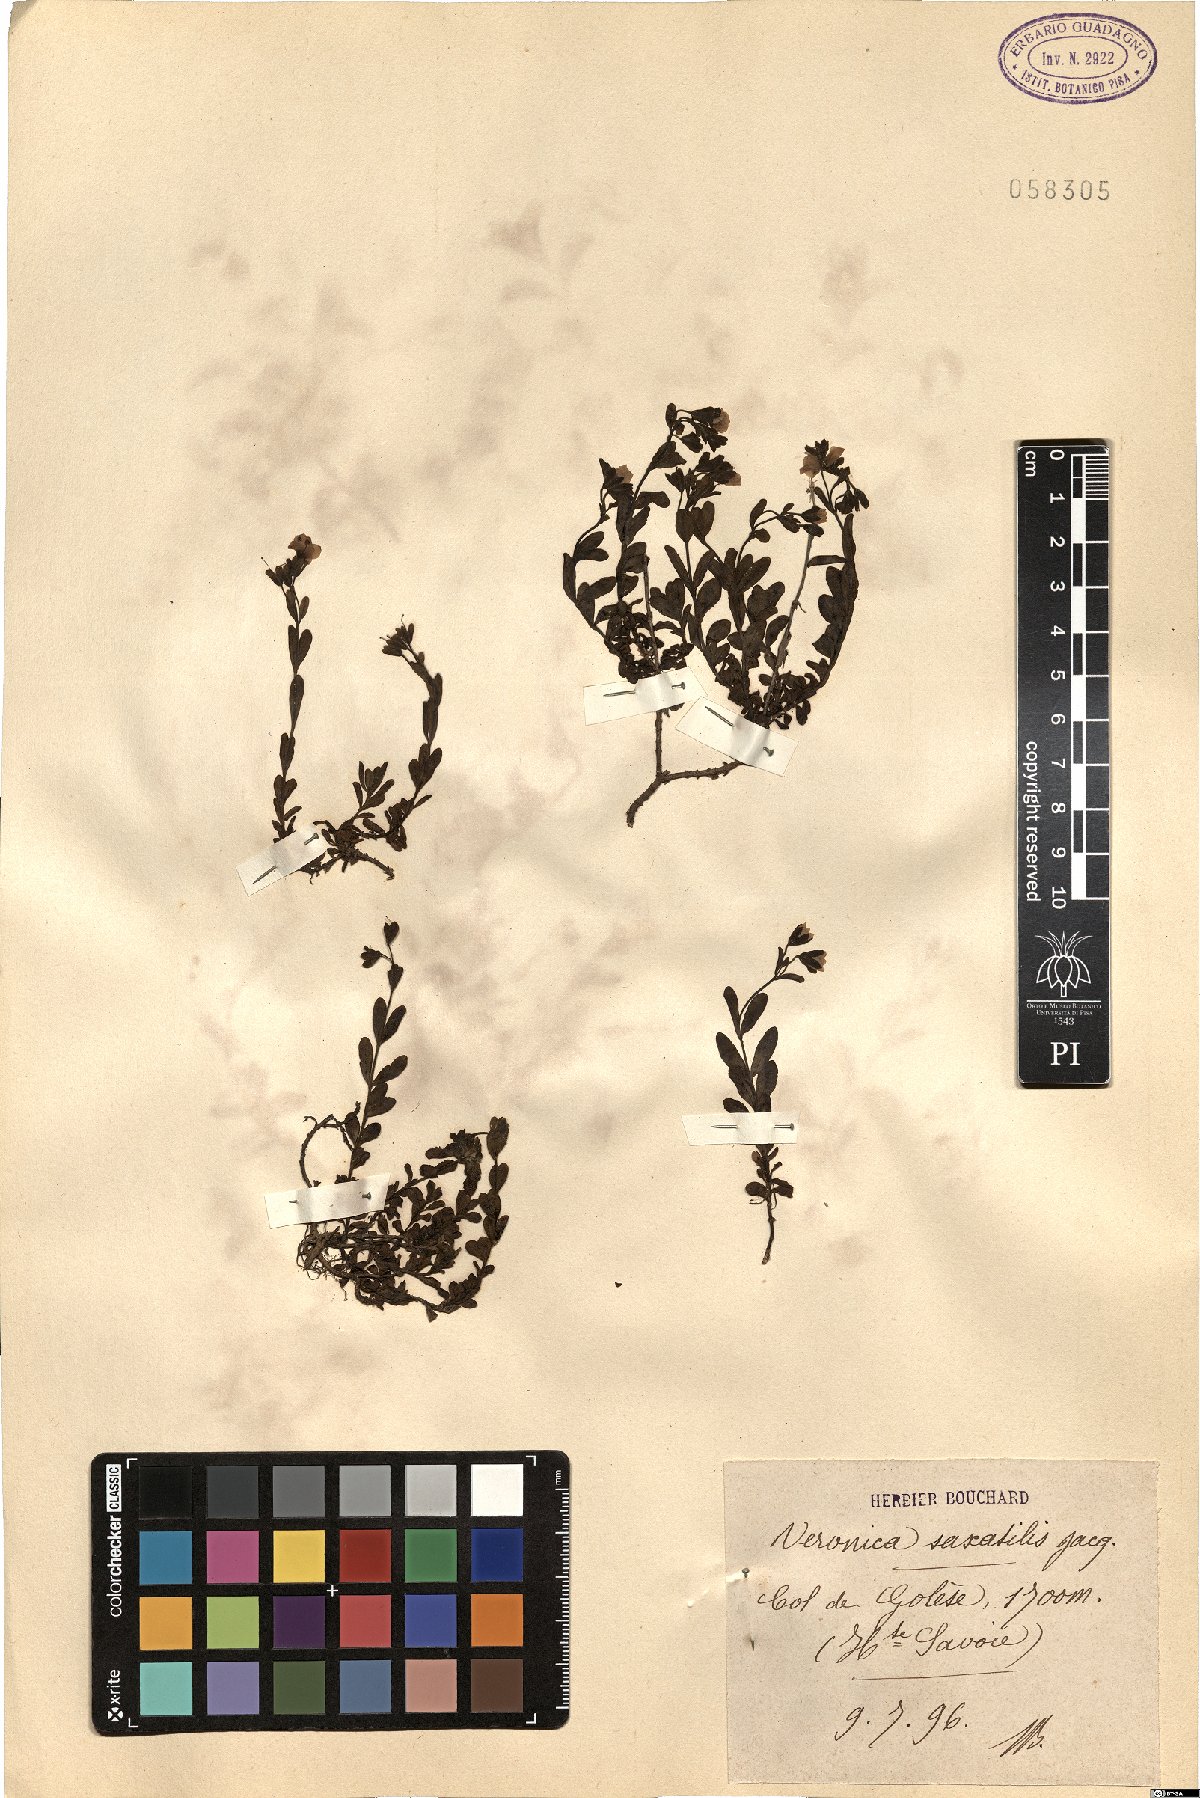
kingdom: Plantae
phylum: Tracheophyta
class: Magnoliopsida
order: Lamiales
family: Plantaginaceae
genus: Veronica
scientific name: Veronica fruticans
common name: Rock speedwell
